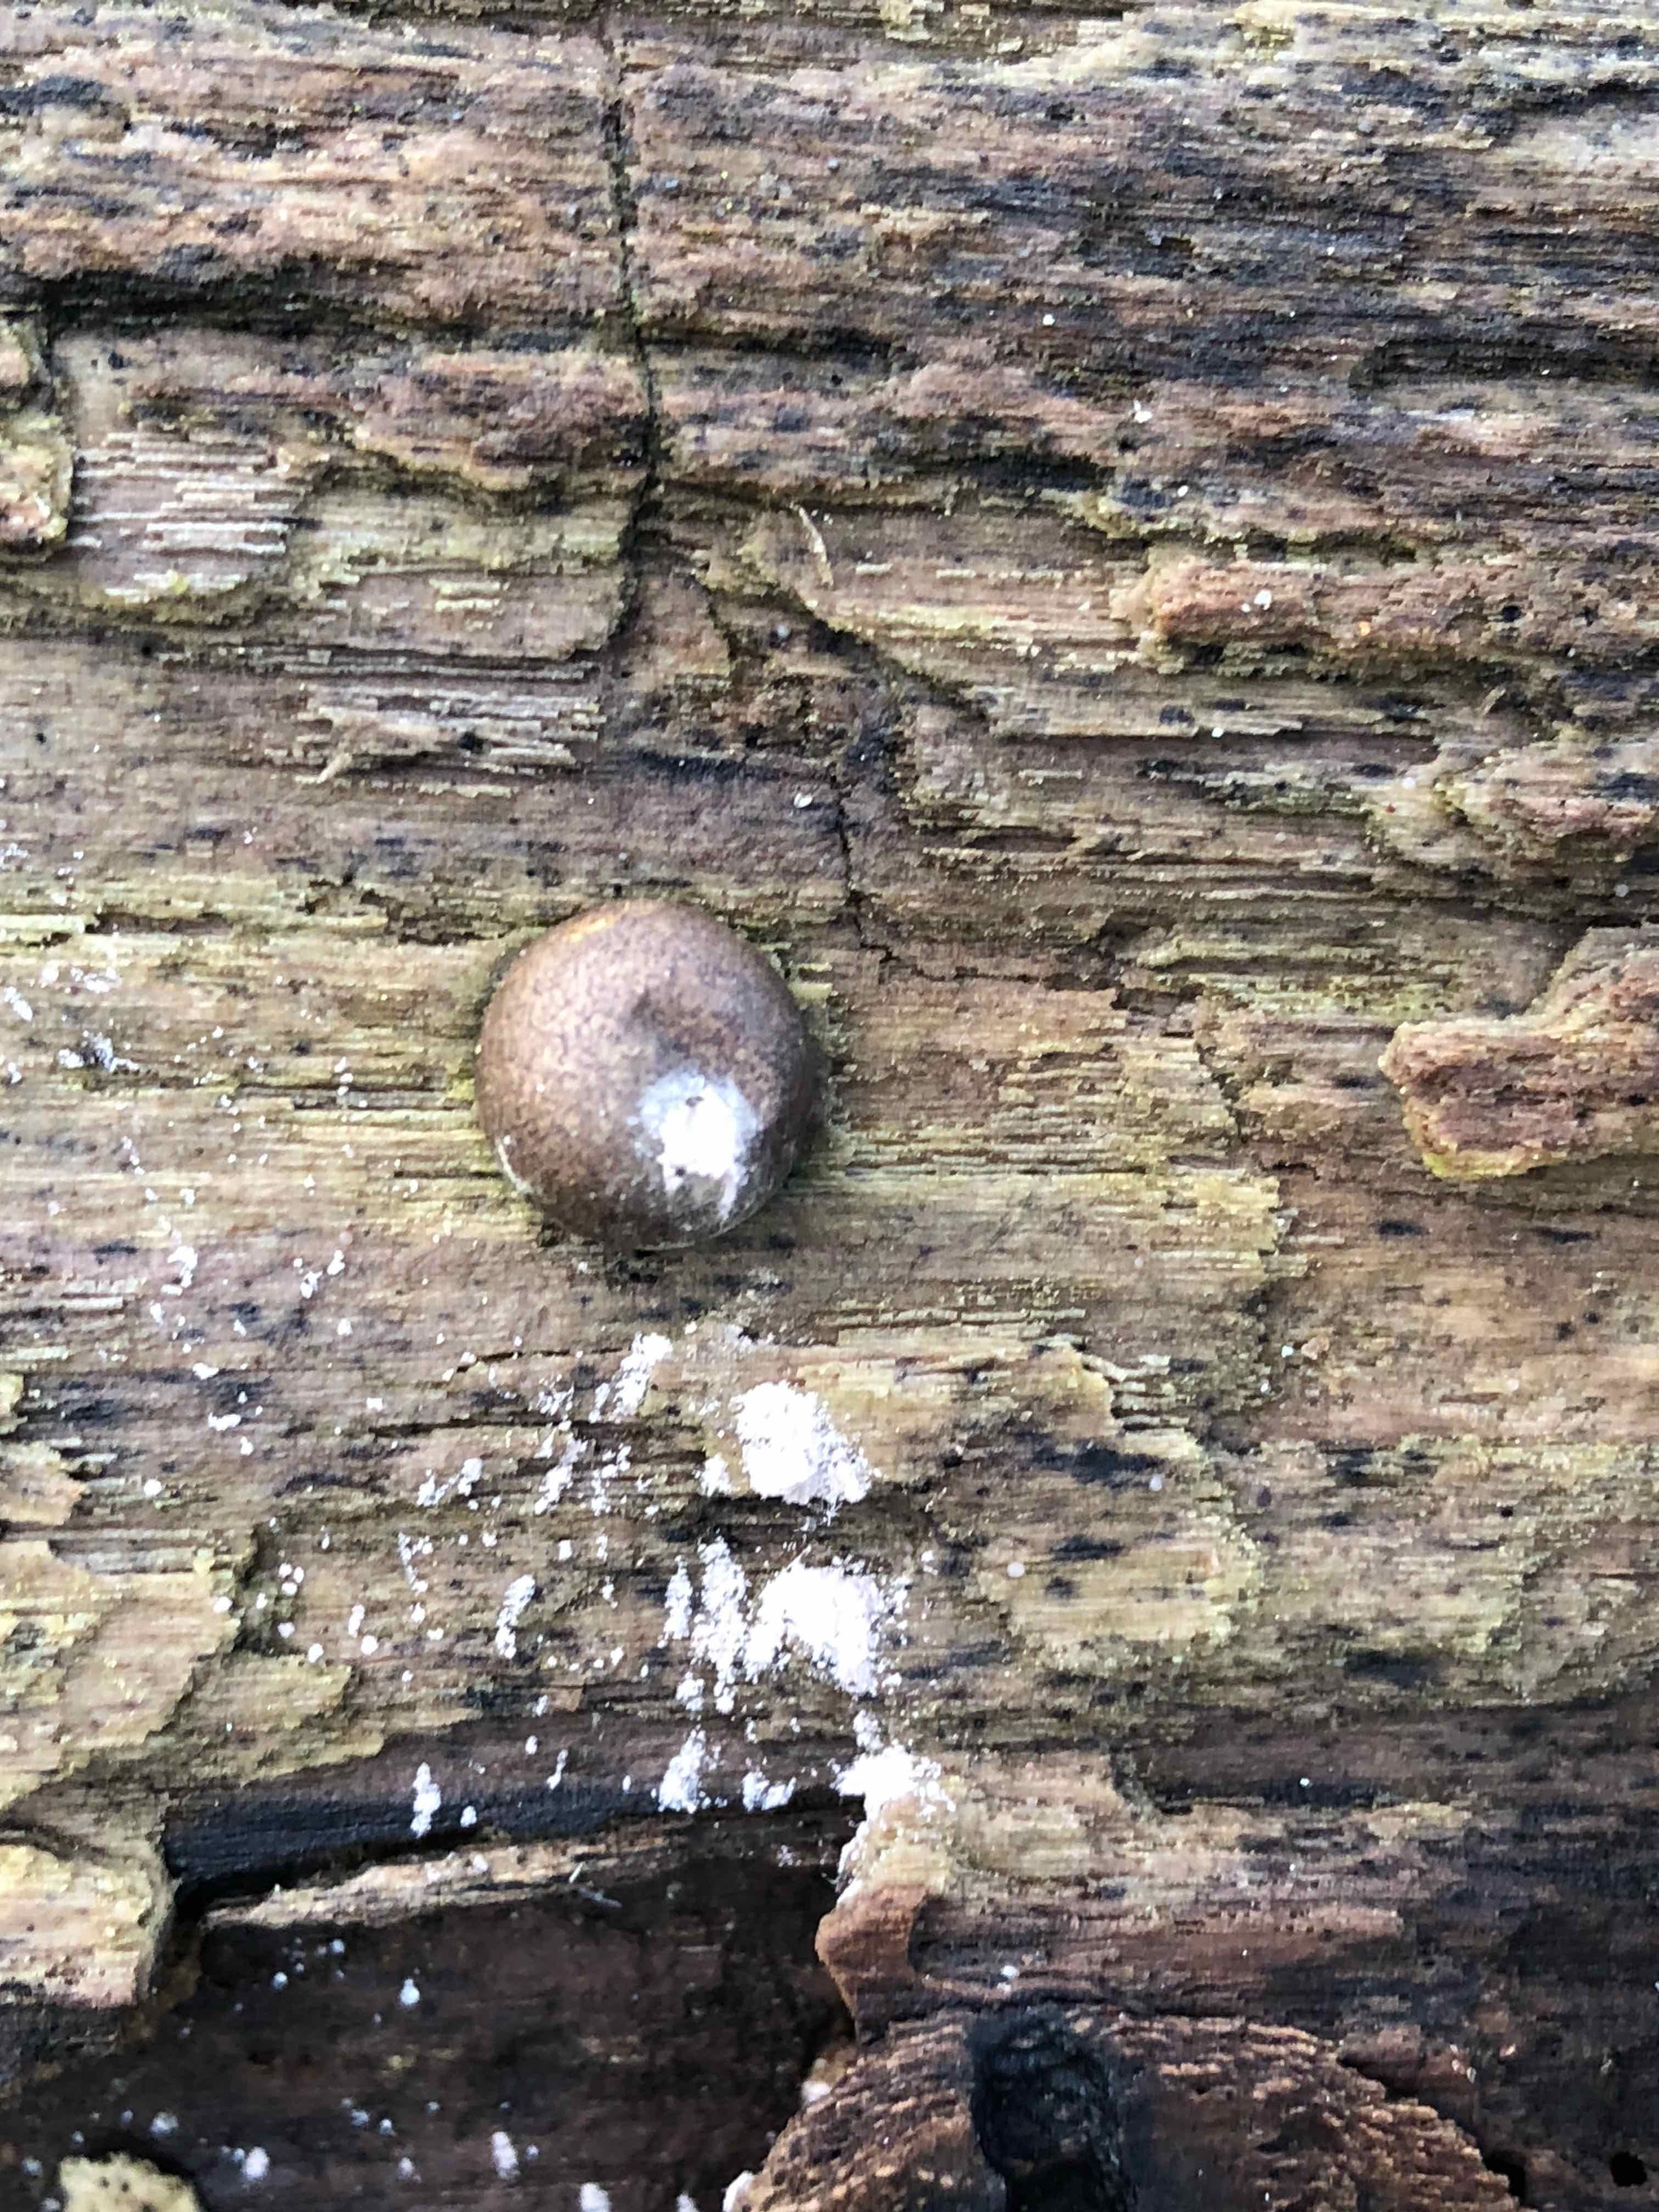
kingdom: Protozoa
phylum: Mycetozoa
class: Myxomycetes
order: Cribrariales
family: Tubiferaceae
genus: Lycogala
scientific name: Lycogala epidendrum
